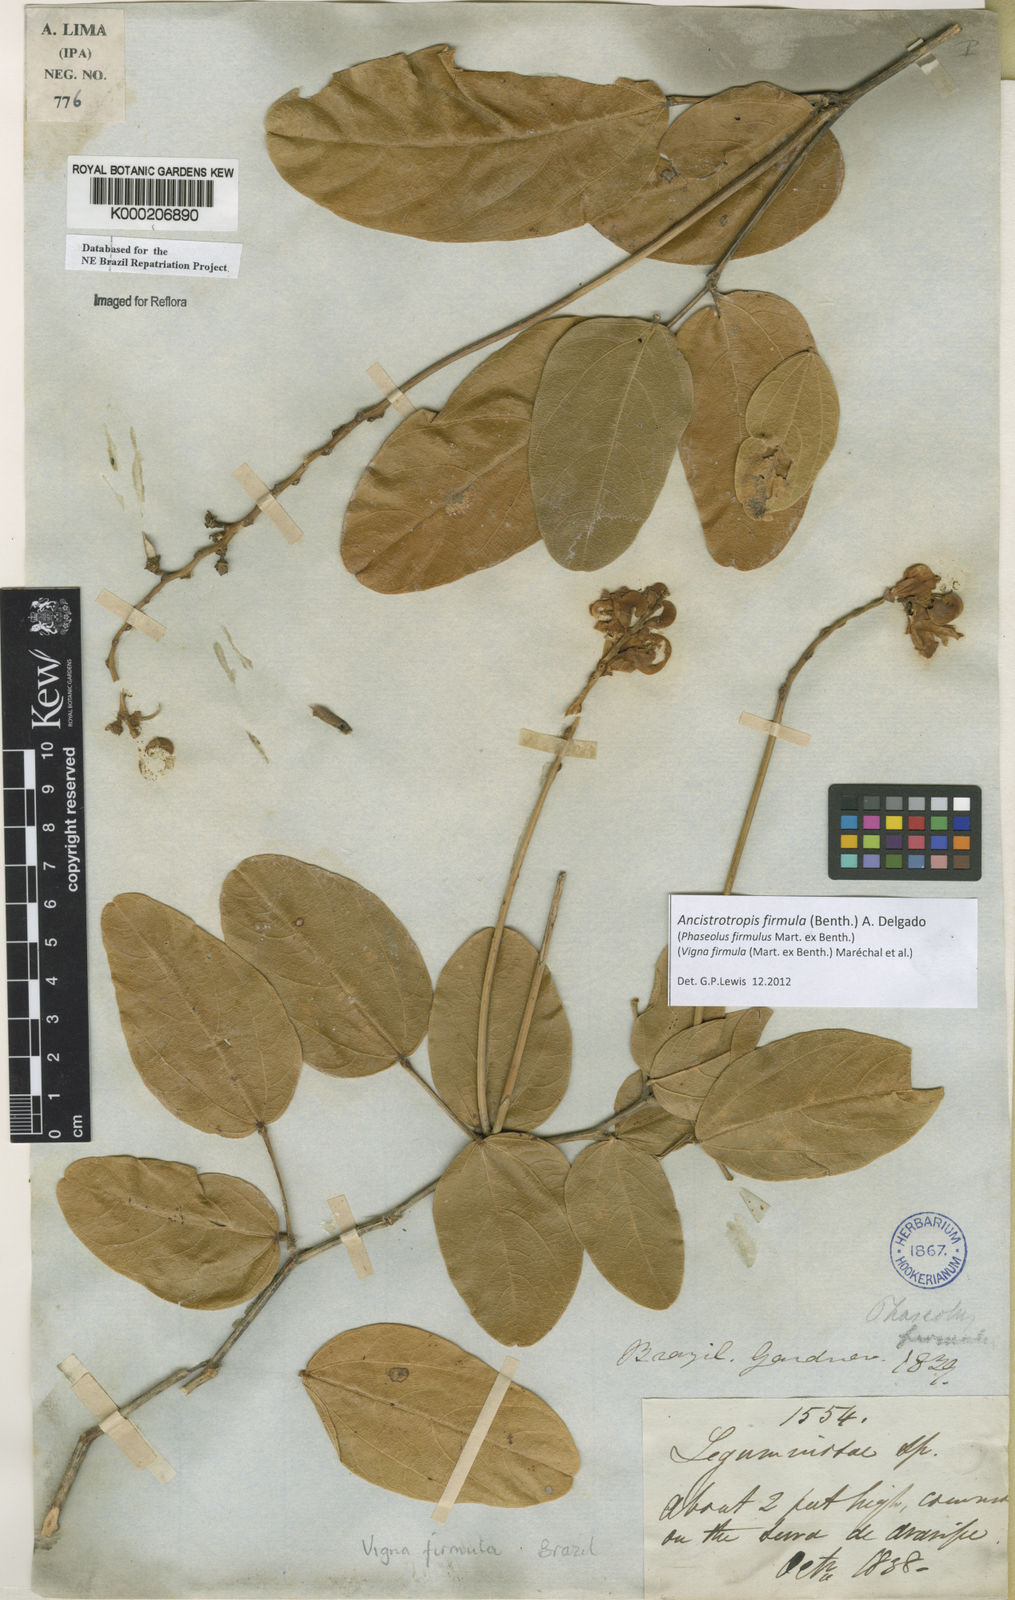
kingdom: Plantae
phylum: Tracheophyta
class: Magnoliopsida
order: Fabales
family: Fabaceae
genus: Vigna
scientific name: Vigna
